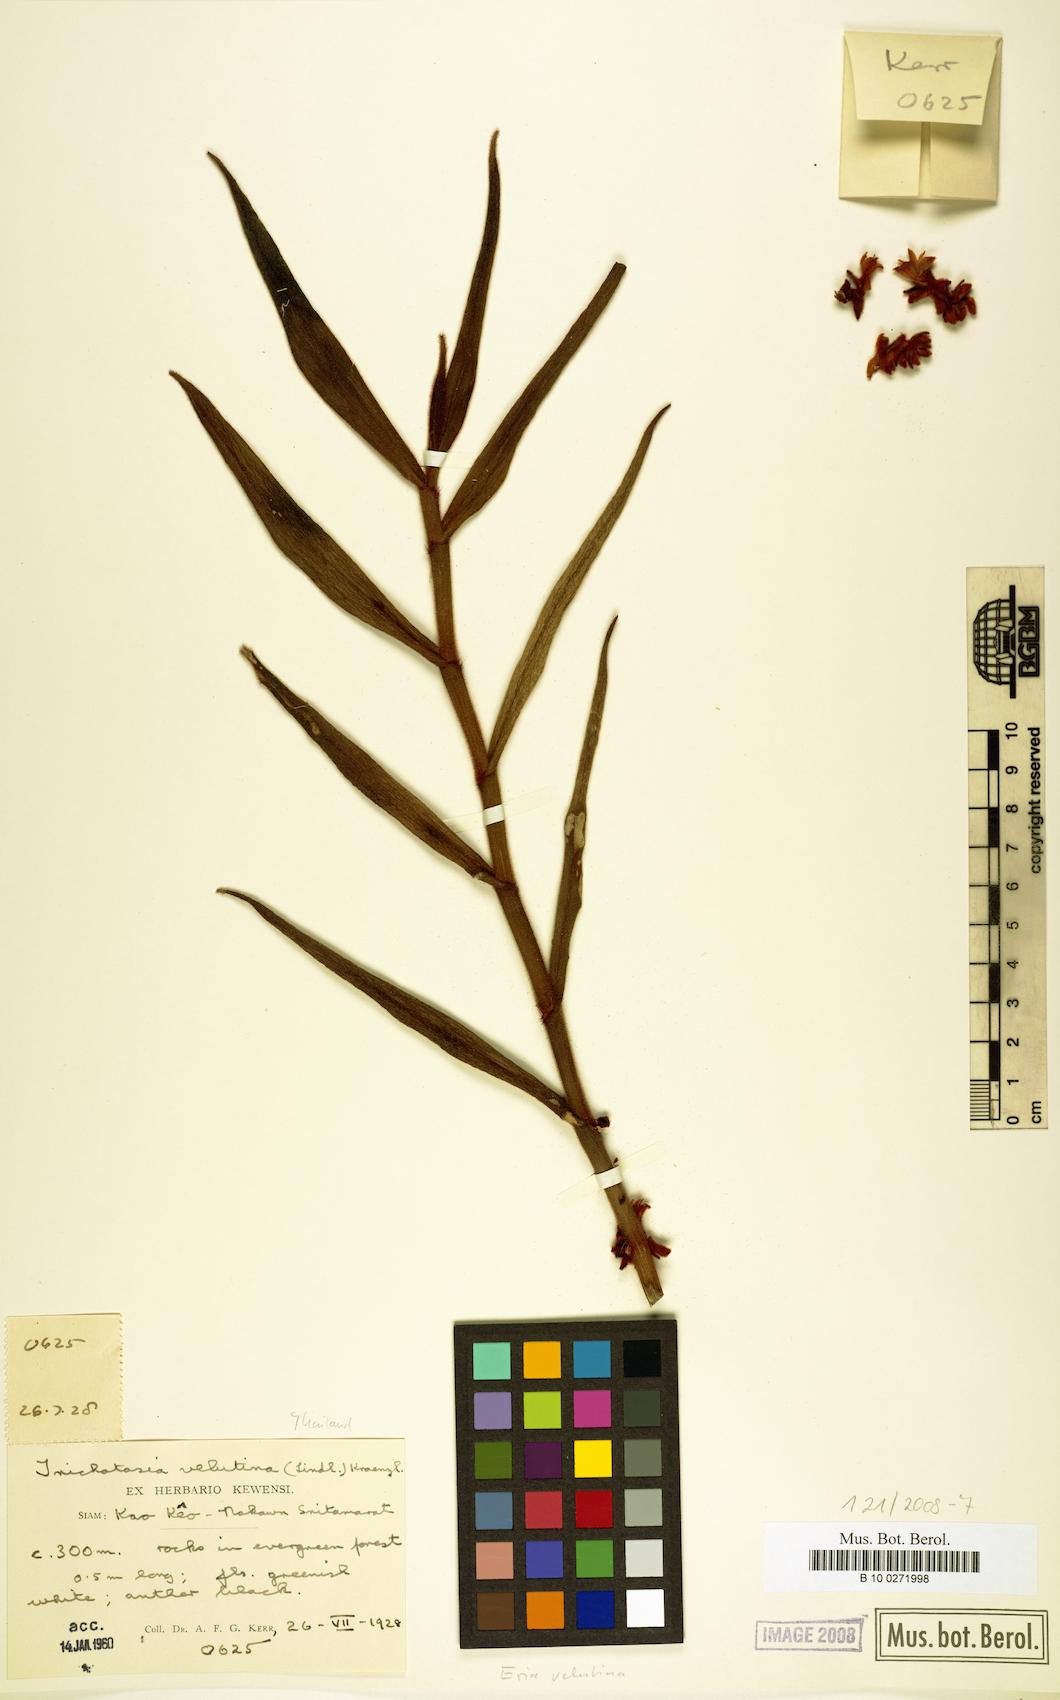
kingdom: Plantae
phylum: Tracheophyta
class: Liliopsida
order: Asparagales
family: Orchidaceae
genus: Trichotosia
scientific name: Trichotosia
